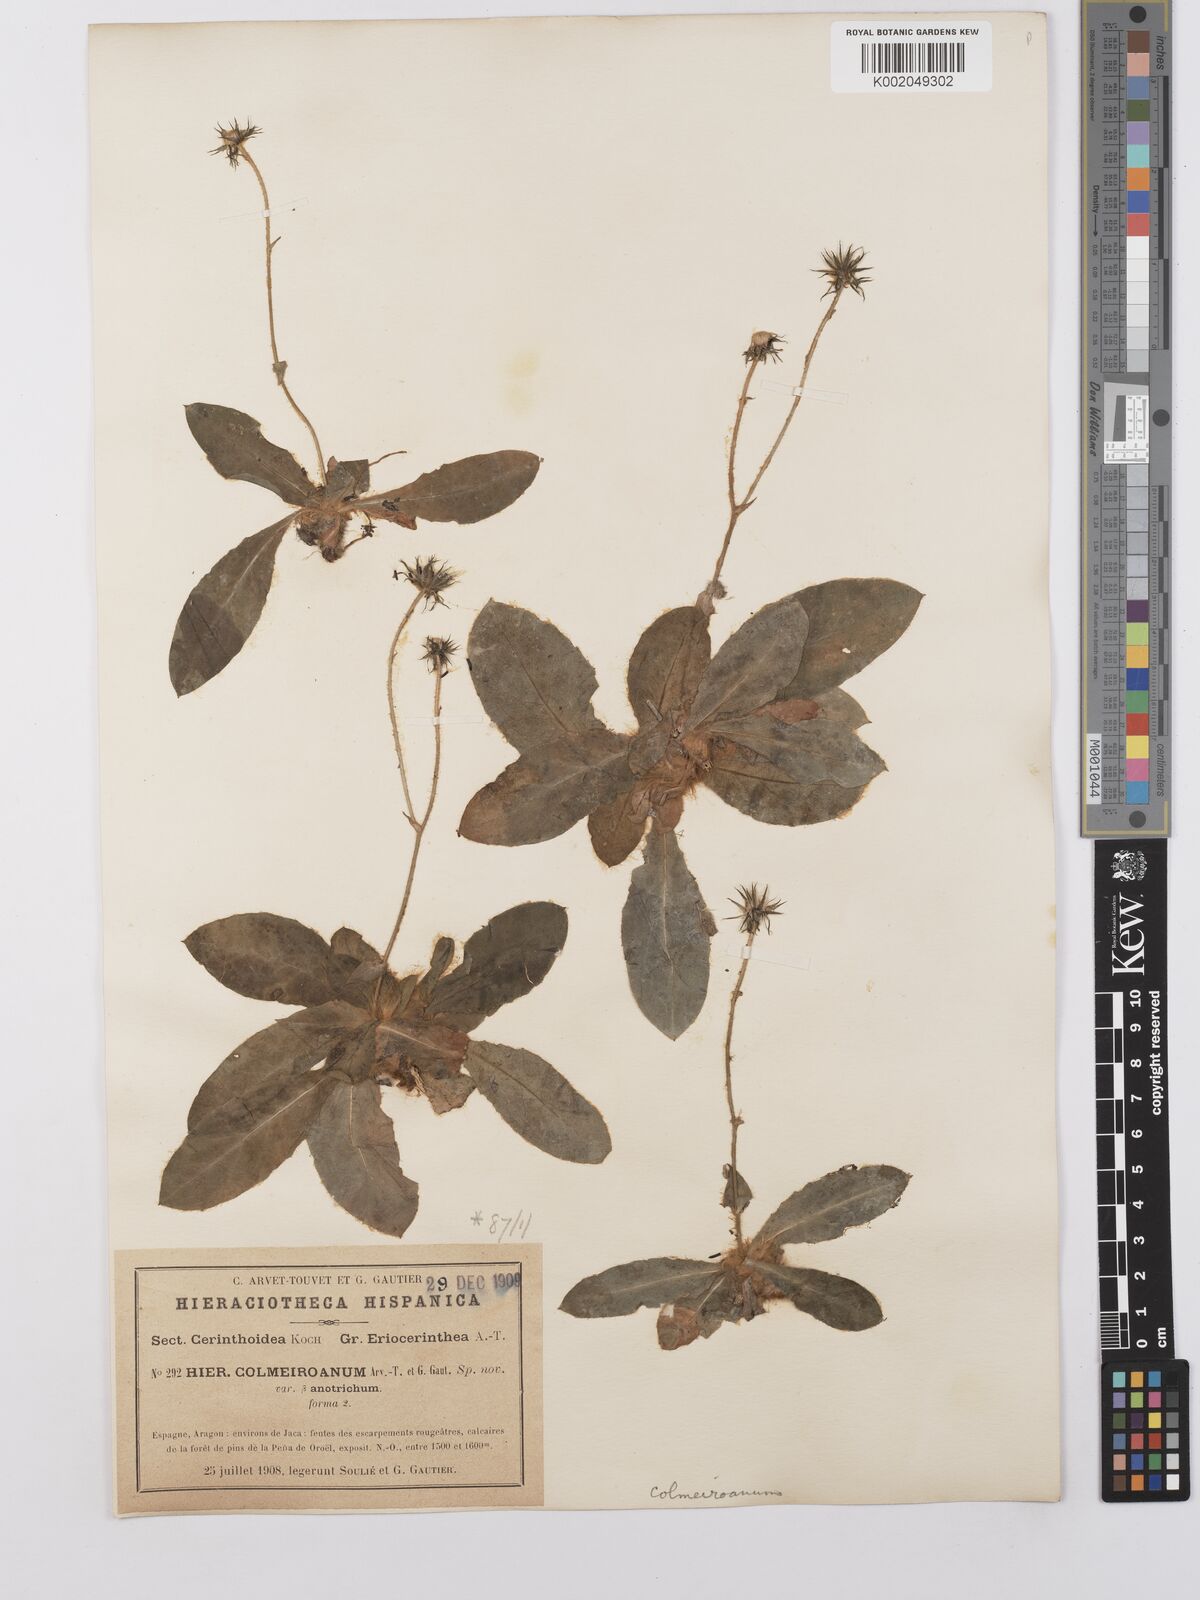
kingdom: Plantae
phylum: Tracheophyta
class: Magnoliopsida
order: Asterales
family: Asteraceae
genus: Hieracium
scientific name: Hieracium colmeiroanum
